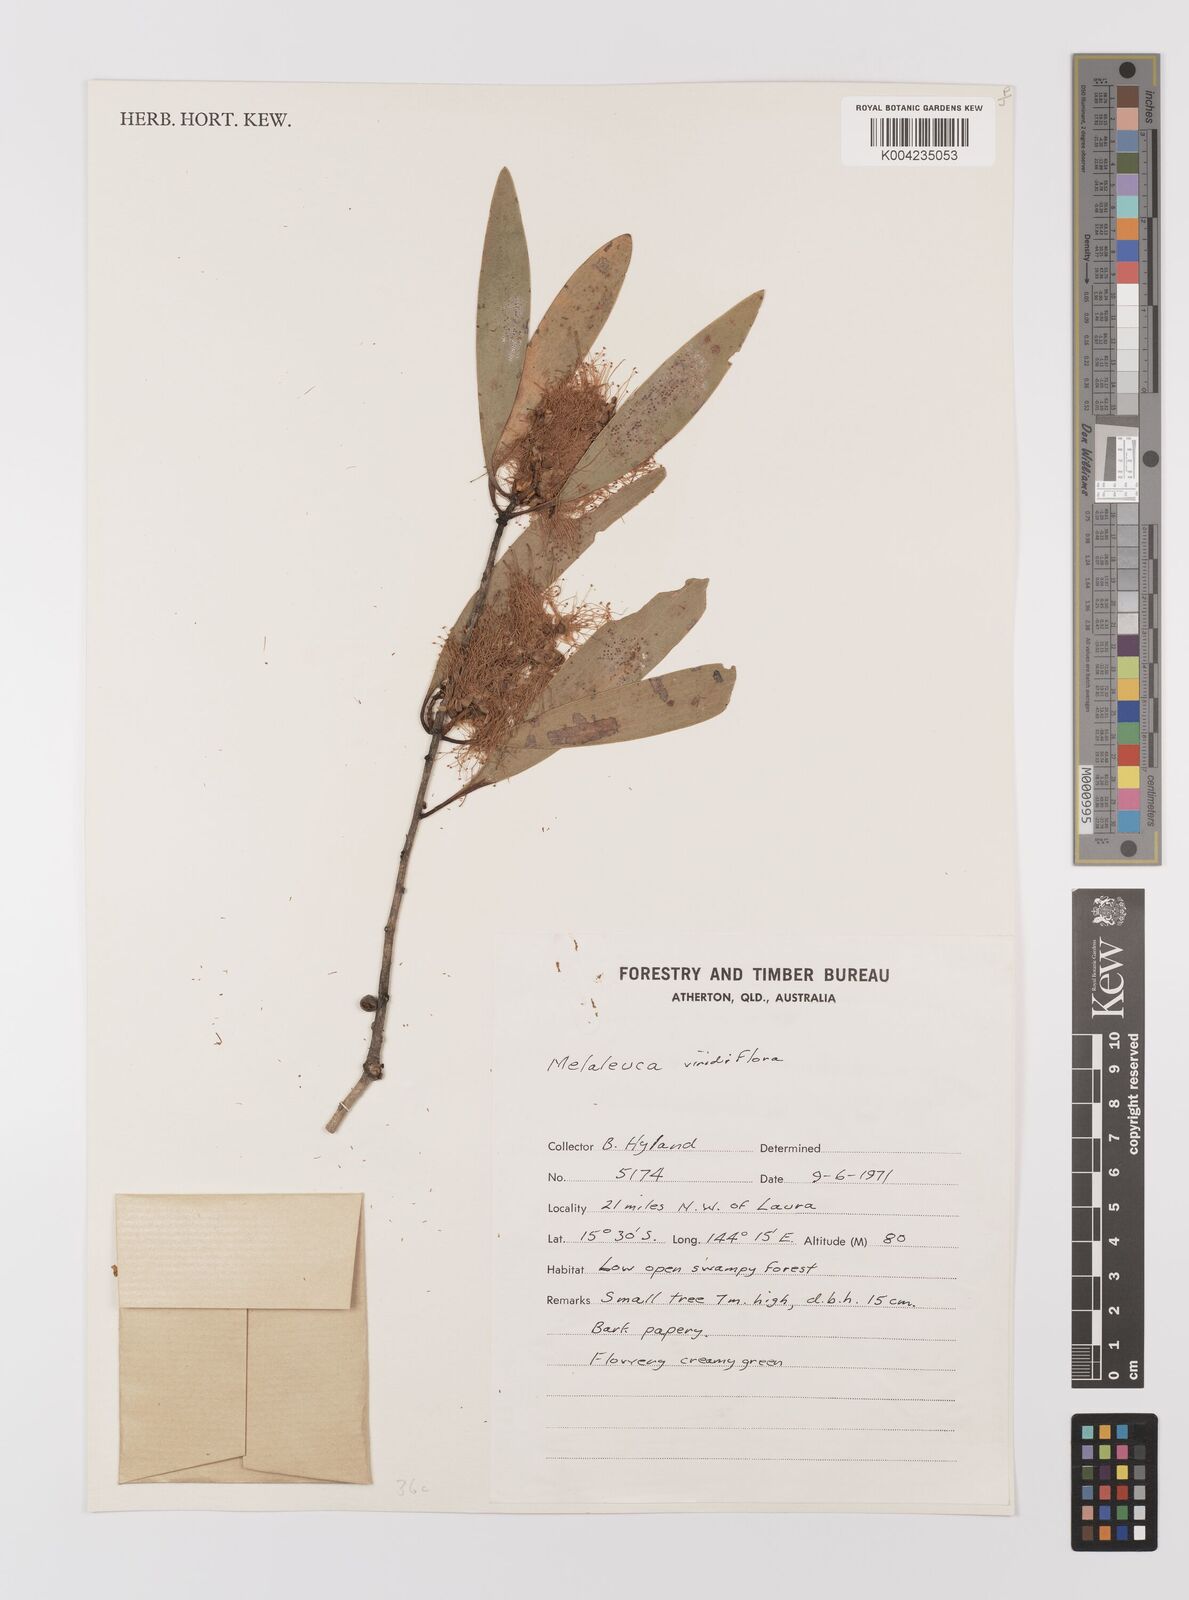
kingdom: Plantae
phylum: Tracheophyta
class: Magnoliopsida
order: Myrtales
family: Myrtaceae
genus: Melaleuca
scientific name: Melaleuca viridiflora
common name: Brown-leaved paperbark
